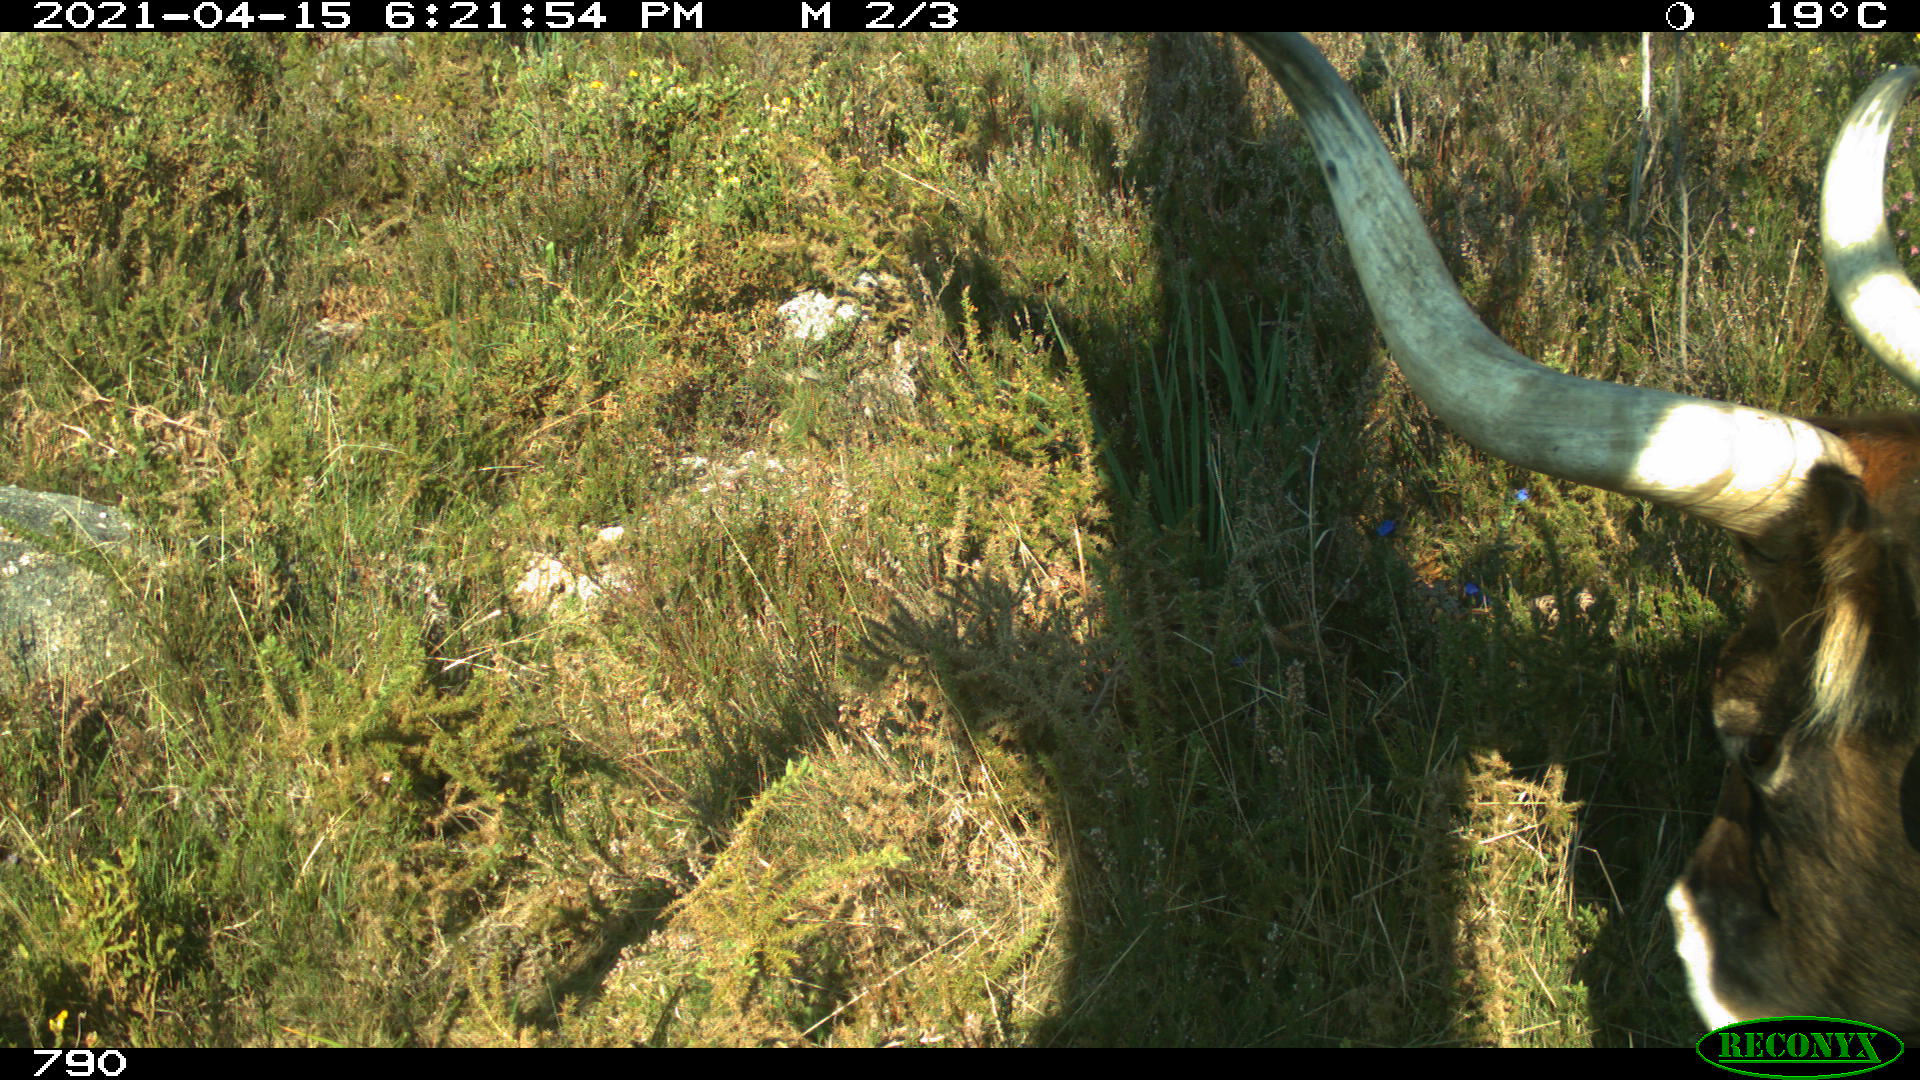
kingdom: Animalia
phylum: Chordata
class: Mammalia
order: Artiodactyla
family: Bovidae
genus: Bos
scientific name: Bos taurus
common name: Domesticated cattle
